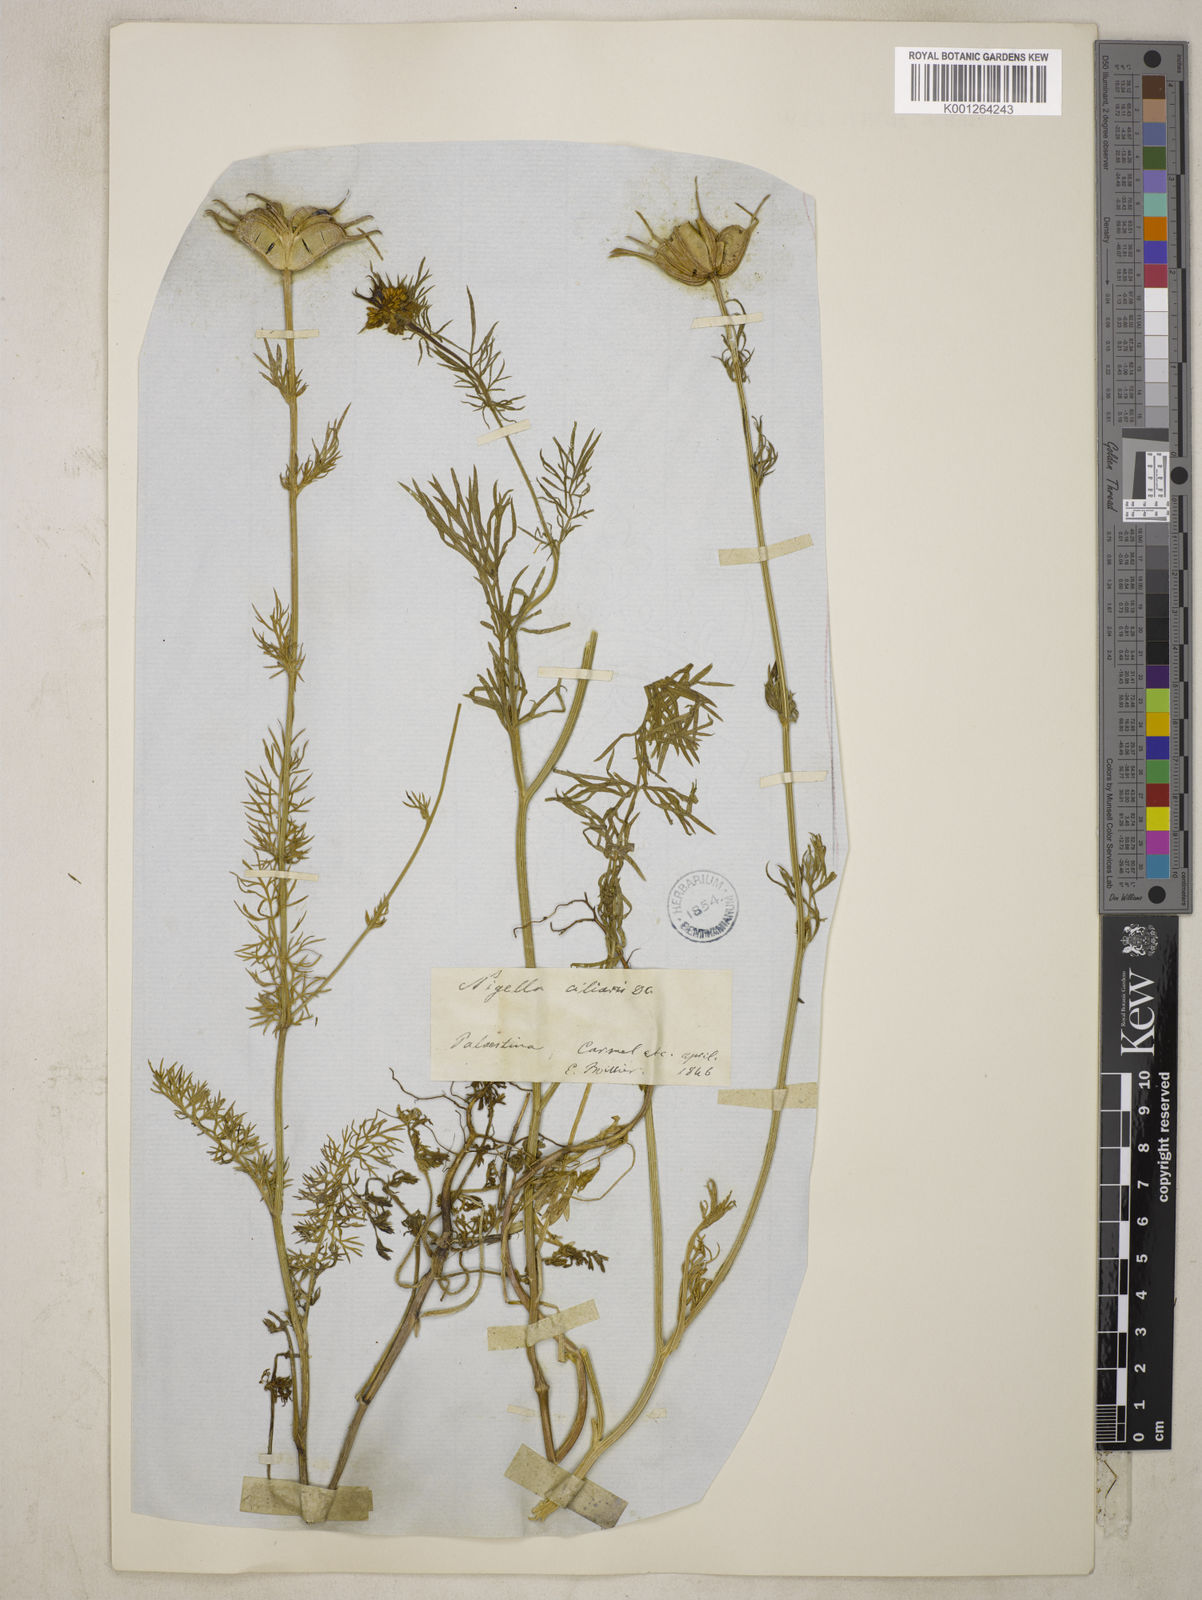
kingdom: Plantae
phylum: Tracheophyta
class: Magnoliopsida
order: Ranunculales
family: Ranunculaceae
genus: Nigella
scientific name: Nigella ciliaris
